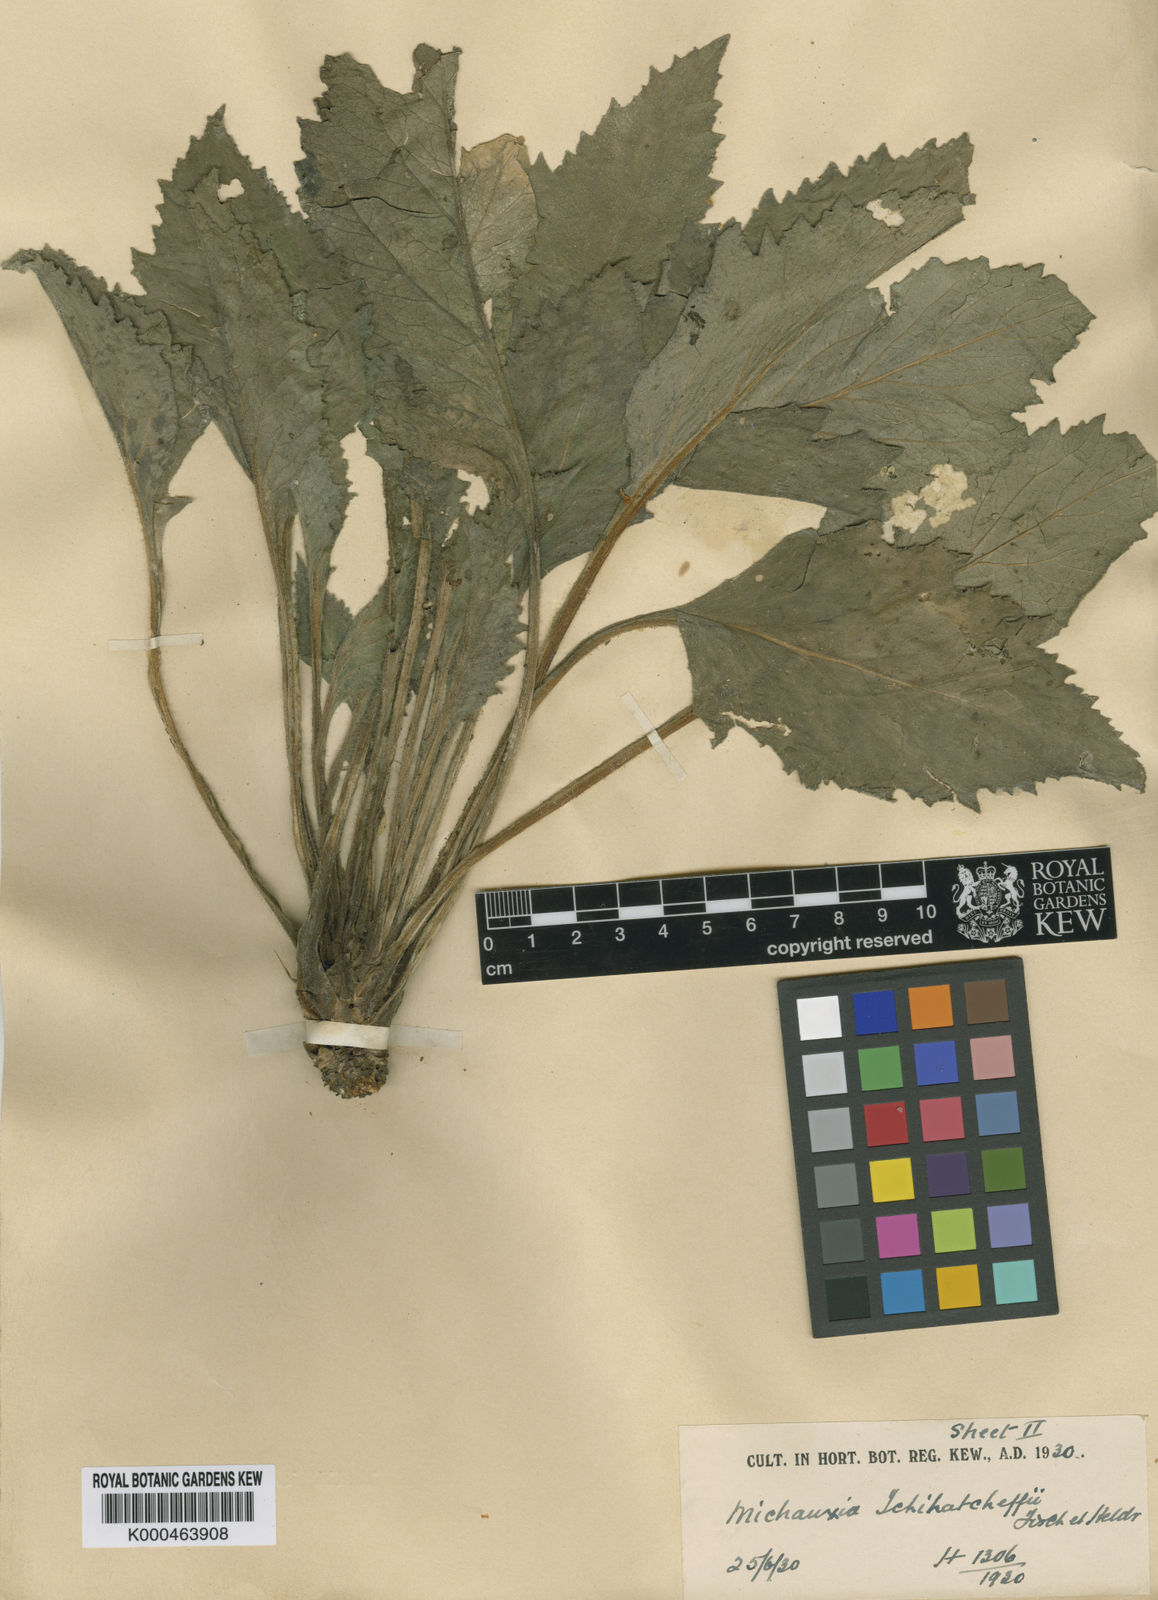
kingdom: Plantae
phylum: Tracheophyta
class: Magnoliopsida
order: Asterales
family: Campanulaceae
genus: Michauxia
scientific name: Michauxia tchihatcheffii
